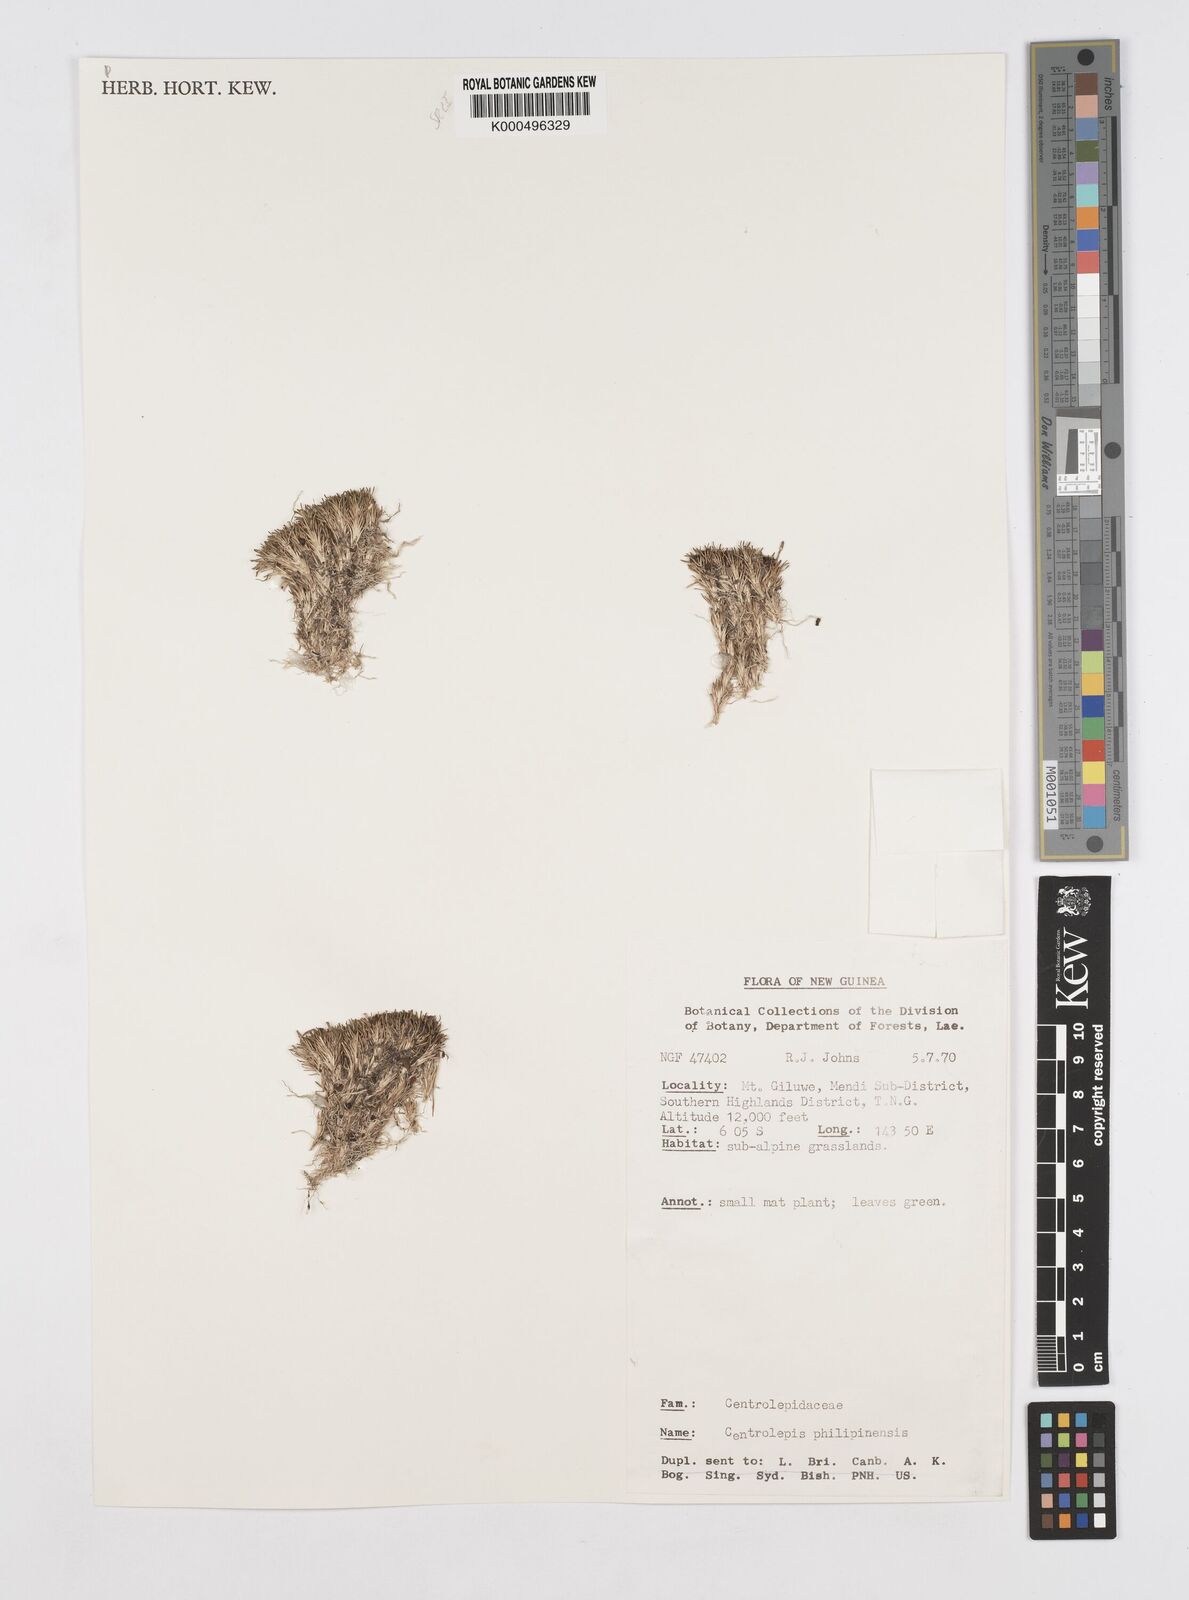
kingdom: Plantae
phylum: Tracheophyta
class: Liliopsida
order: Poales
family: Restionaceae
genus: Centrolepis
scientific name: Centrolepis philippinensis
